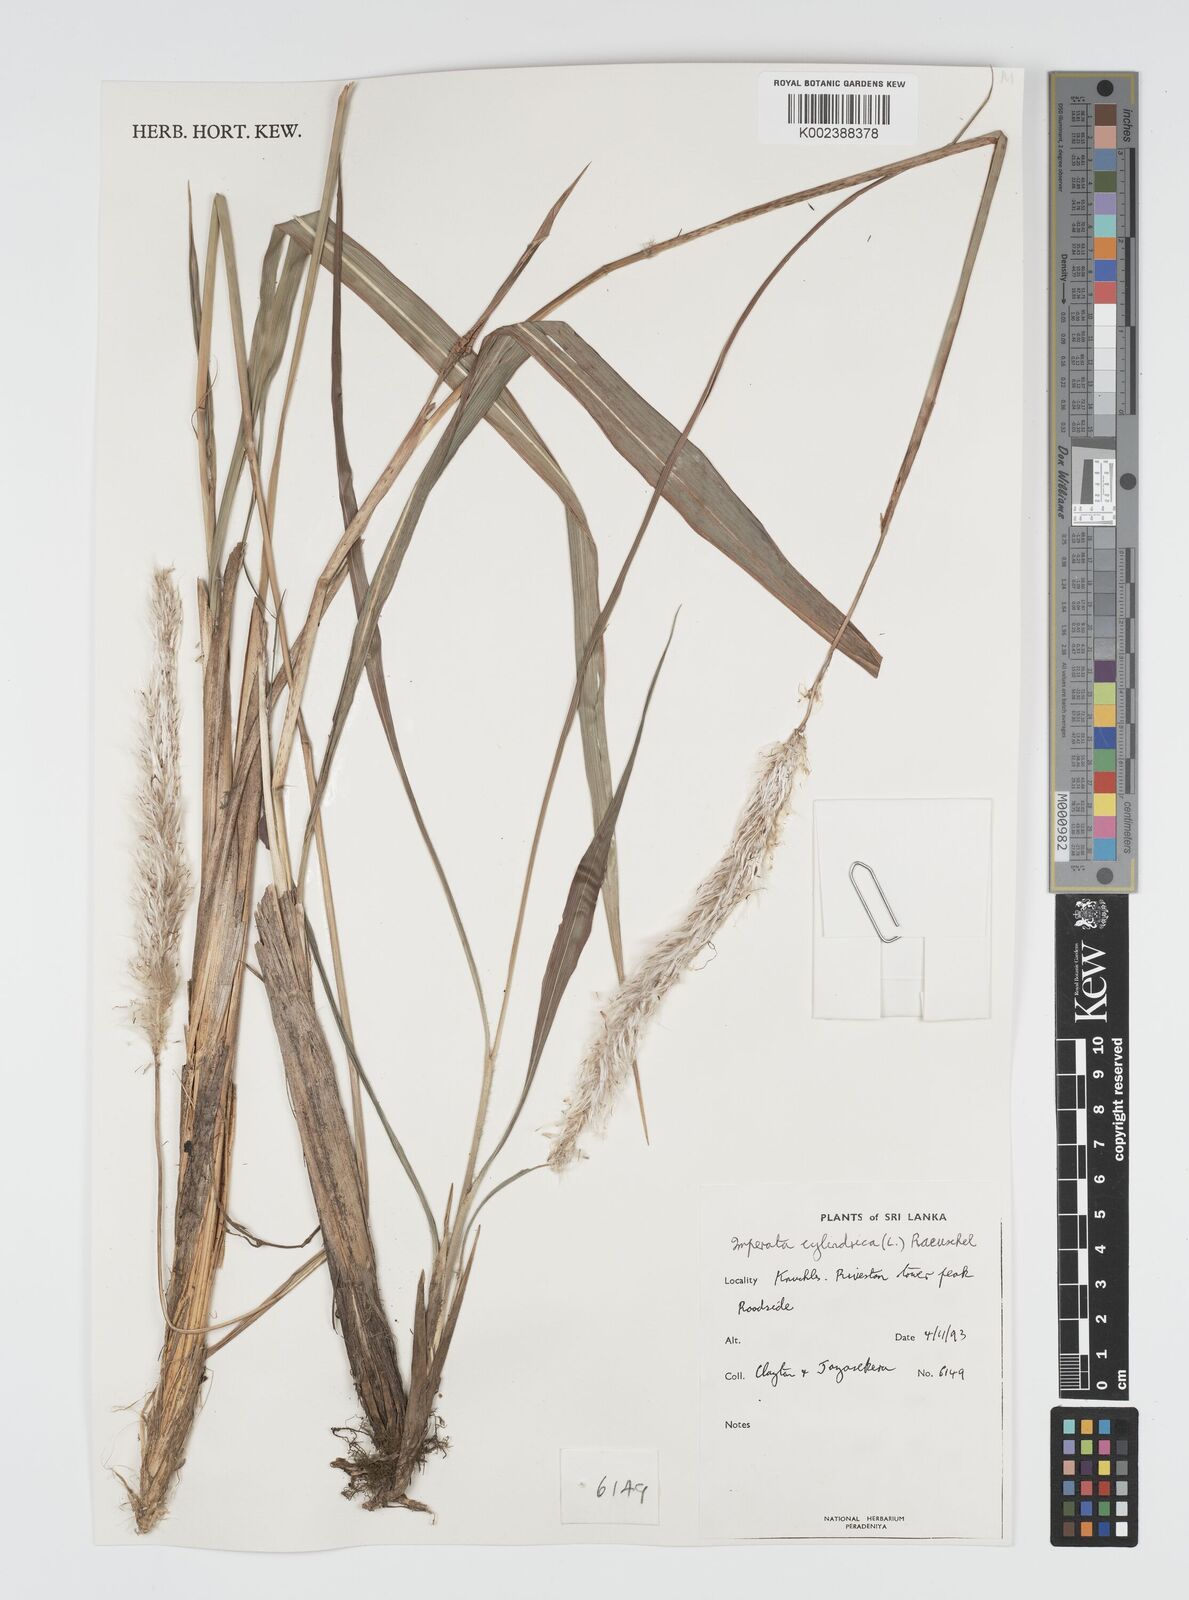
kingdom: Plantae
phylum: Tracheophyta
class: Liliopsida
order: Poales
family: Poaceae
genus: Imperata
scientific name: Imperata cylindrica
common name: Cogongrass
